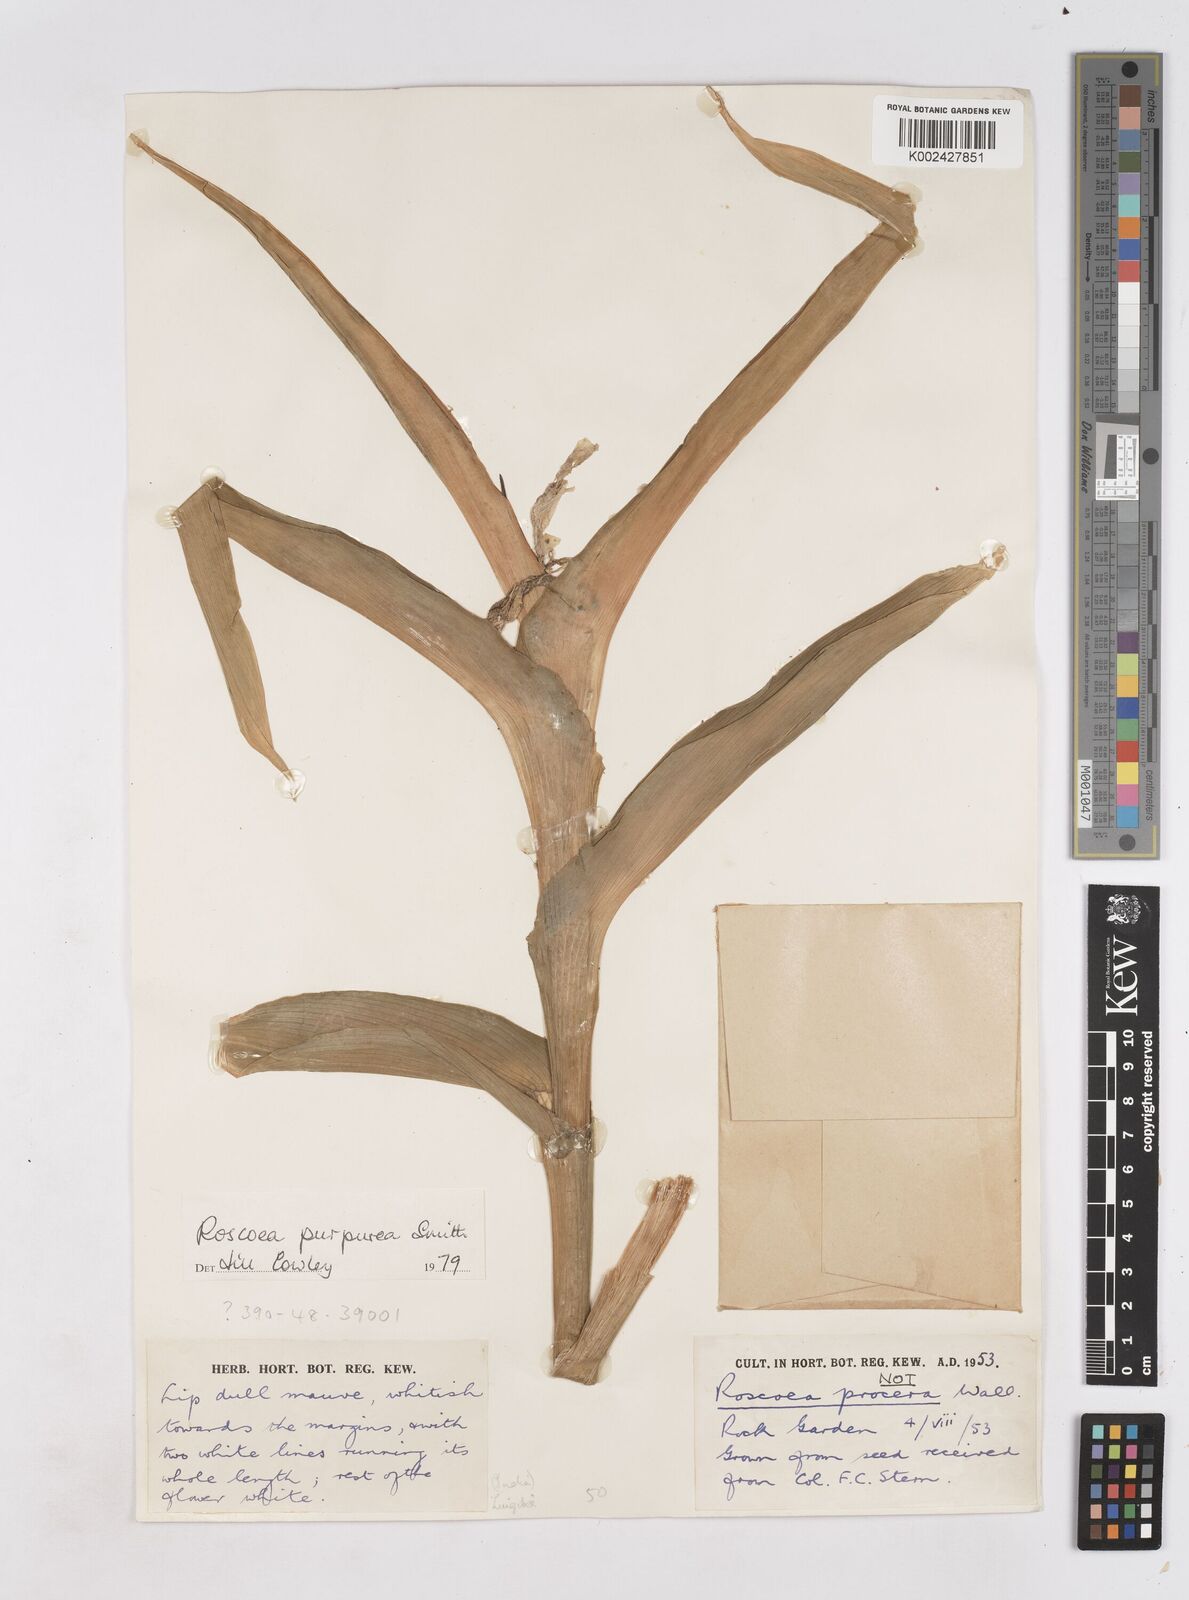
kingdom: Plantae
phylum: Tracheophyta
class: Liliopsida
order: Zingiberales
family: Zingiberaceae
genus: Roscoea
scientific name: Roscoea purpurea
